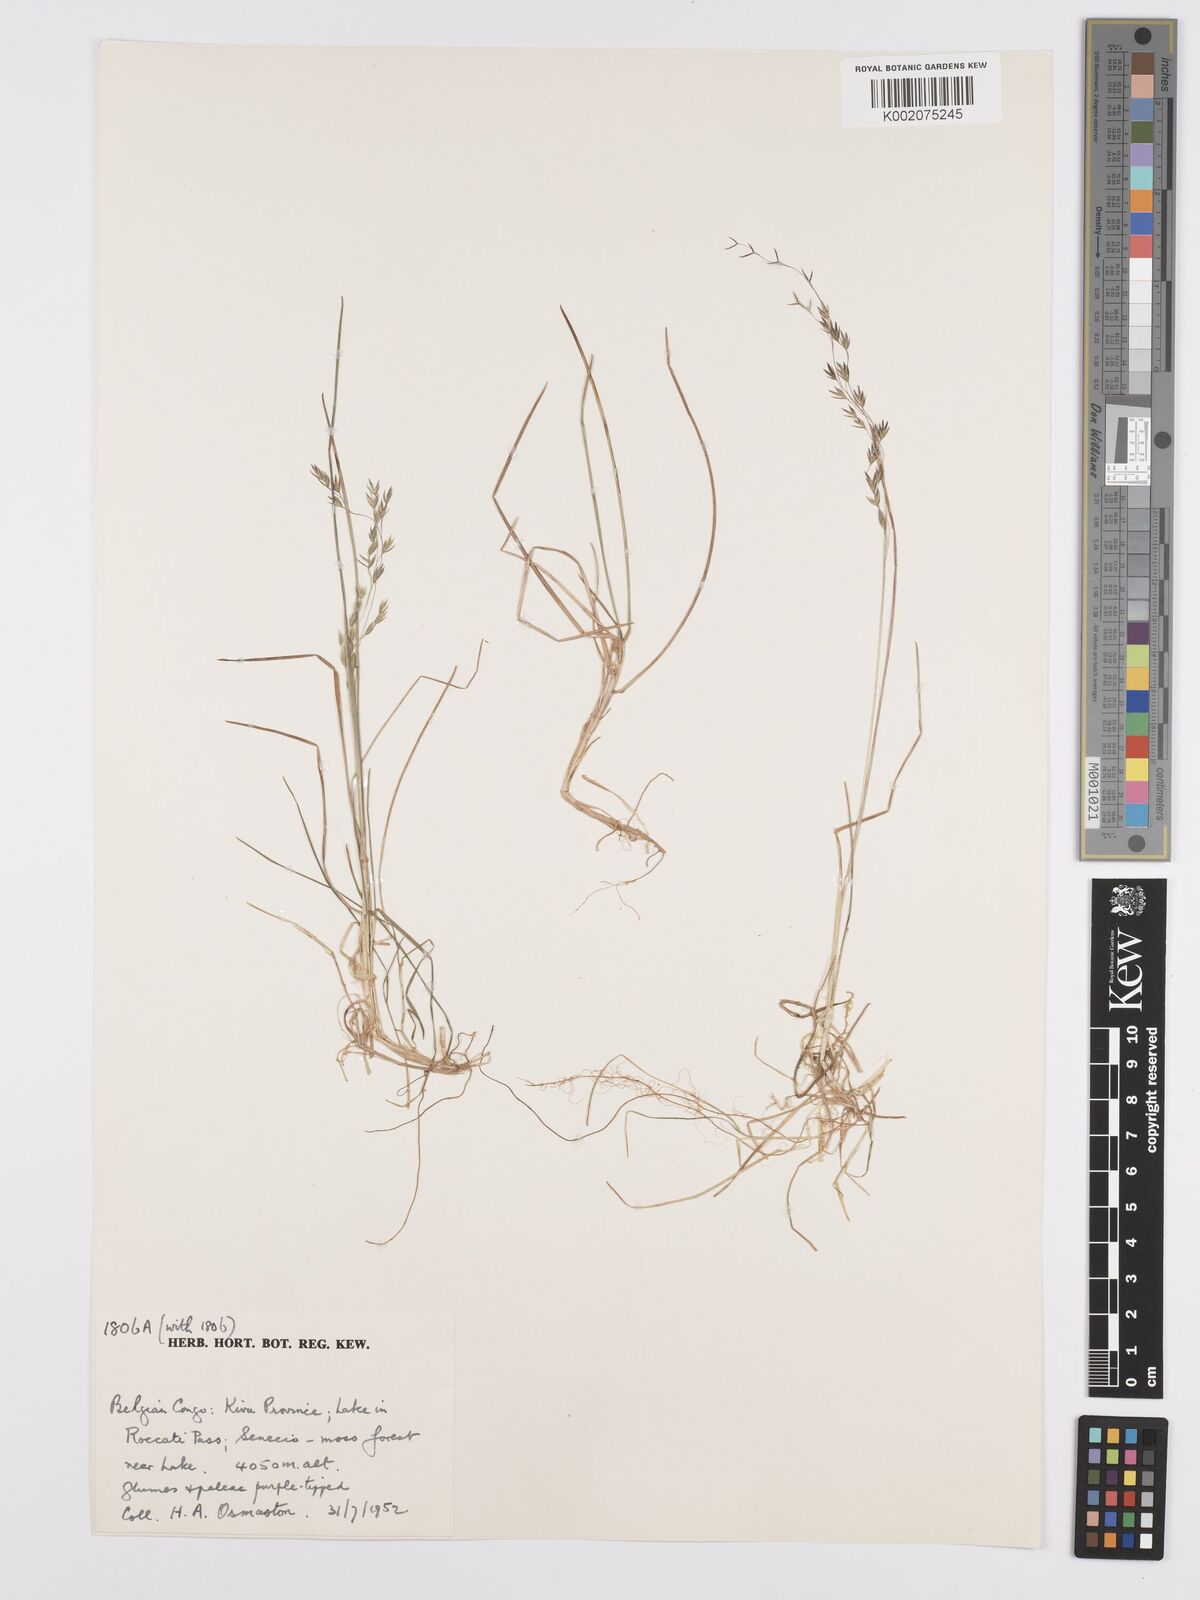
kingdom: Plantae
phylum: Tracheophyta
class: Liliopsida
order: Poales
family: Poaceae
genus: Poa
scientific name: Poa schimperiana
